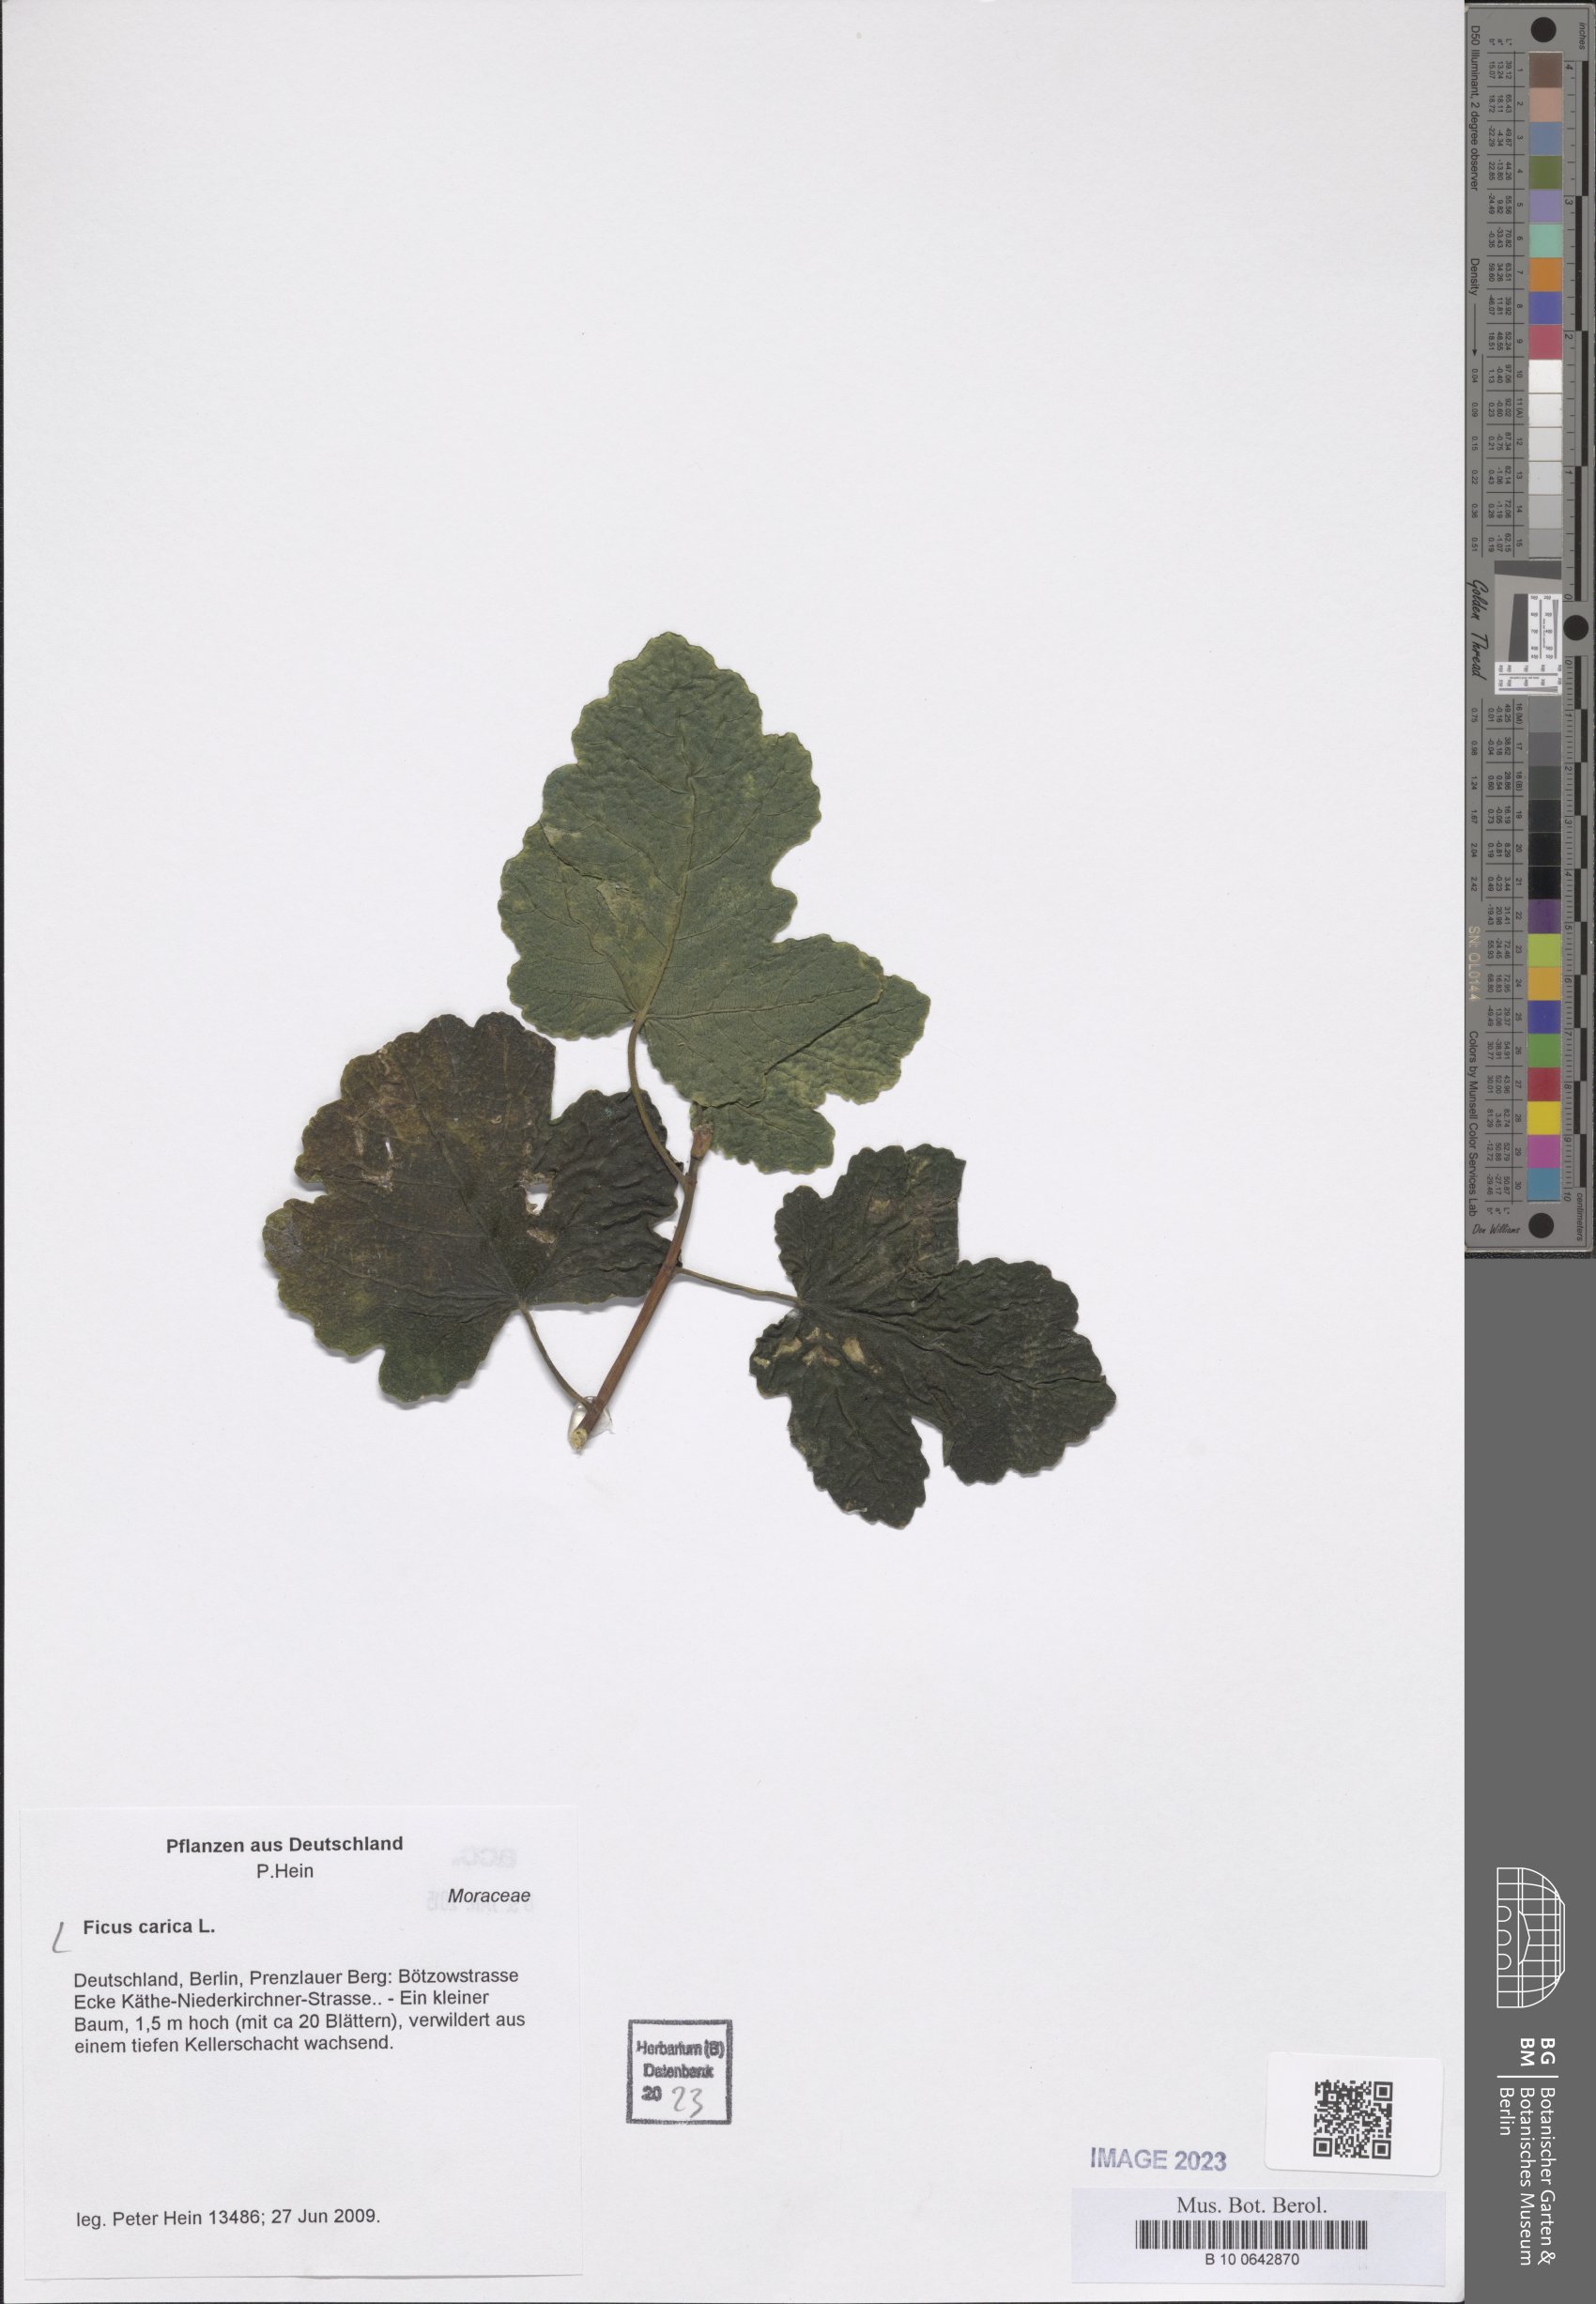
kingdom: Plantae
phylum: Tracheophyta
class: Magnoliopsida
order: Rosales
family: Moraceae
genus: Ficus
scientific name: Ficus carica
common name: Fig
